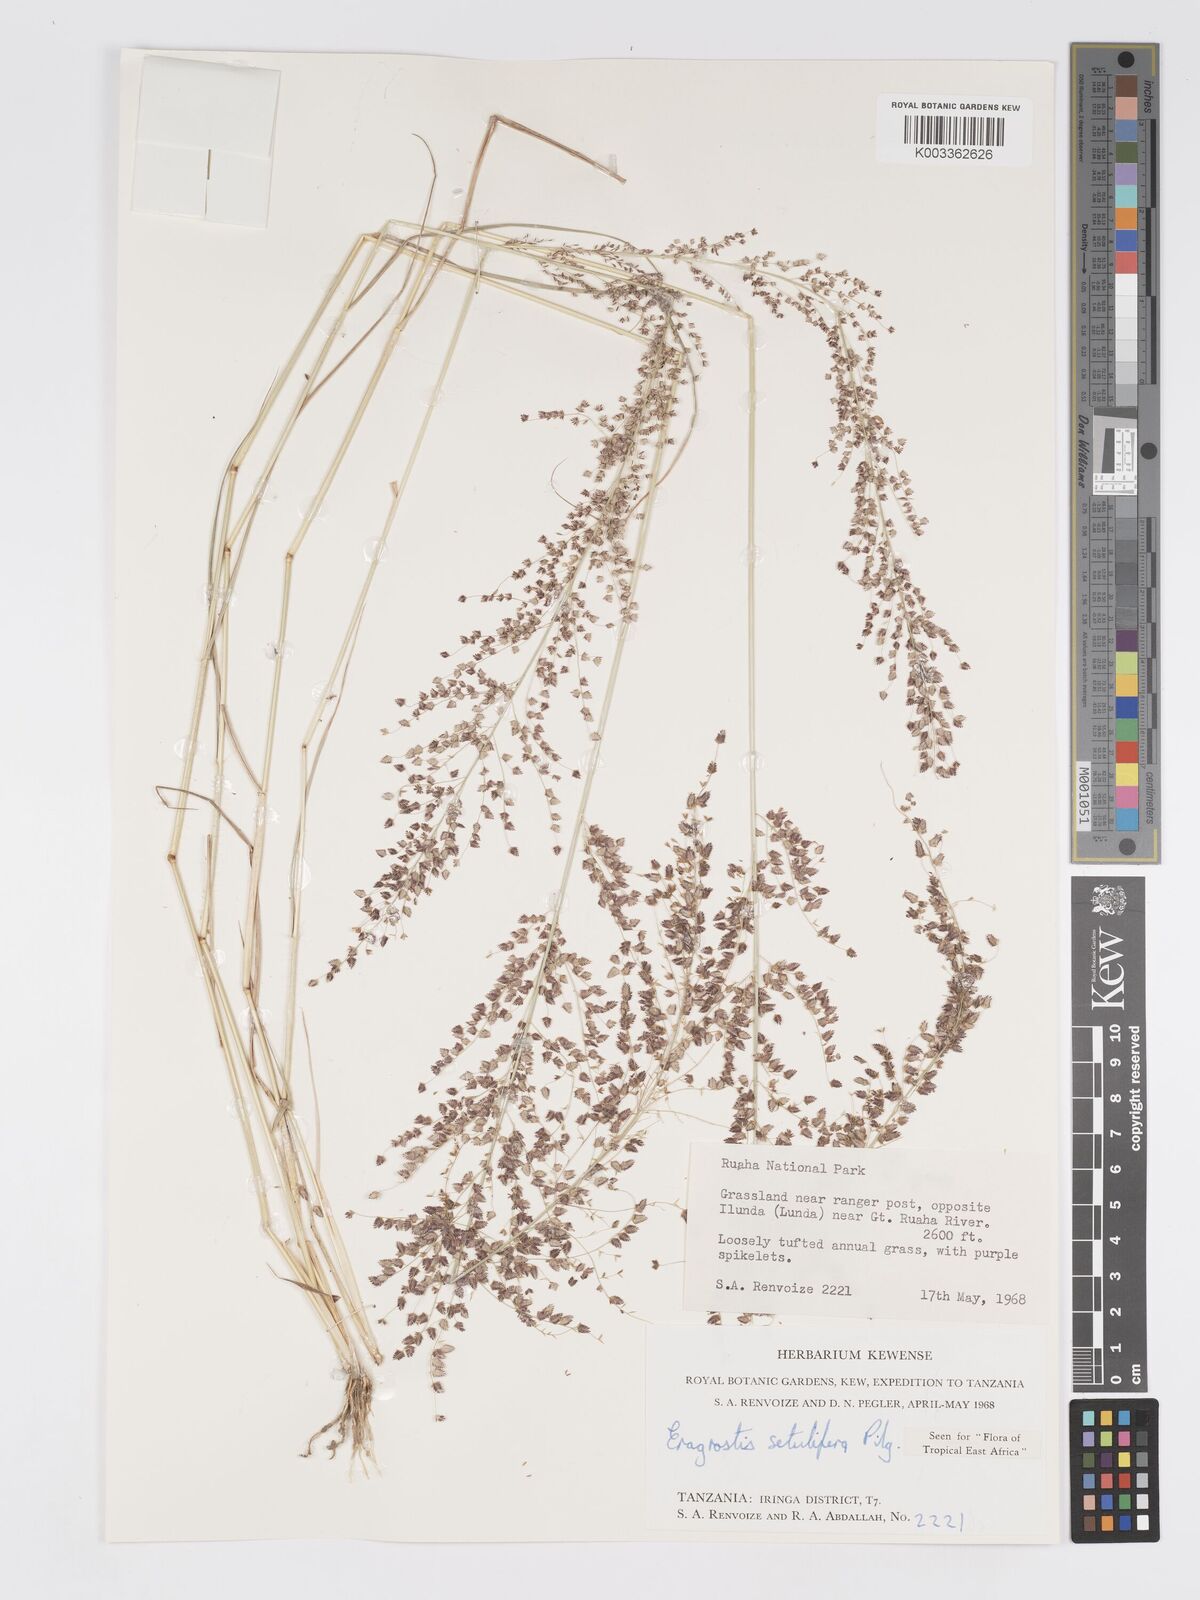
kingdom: Plantae
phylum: Tracheophyta
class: Liliopsida
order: Poales
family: Poaceae
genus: Eragrostis
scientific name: Eragrostis setulifera
